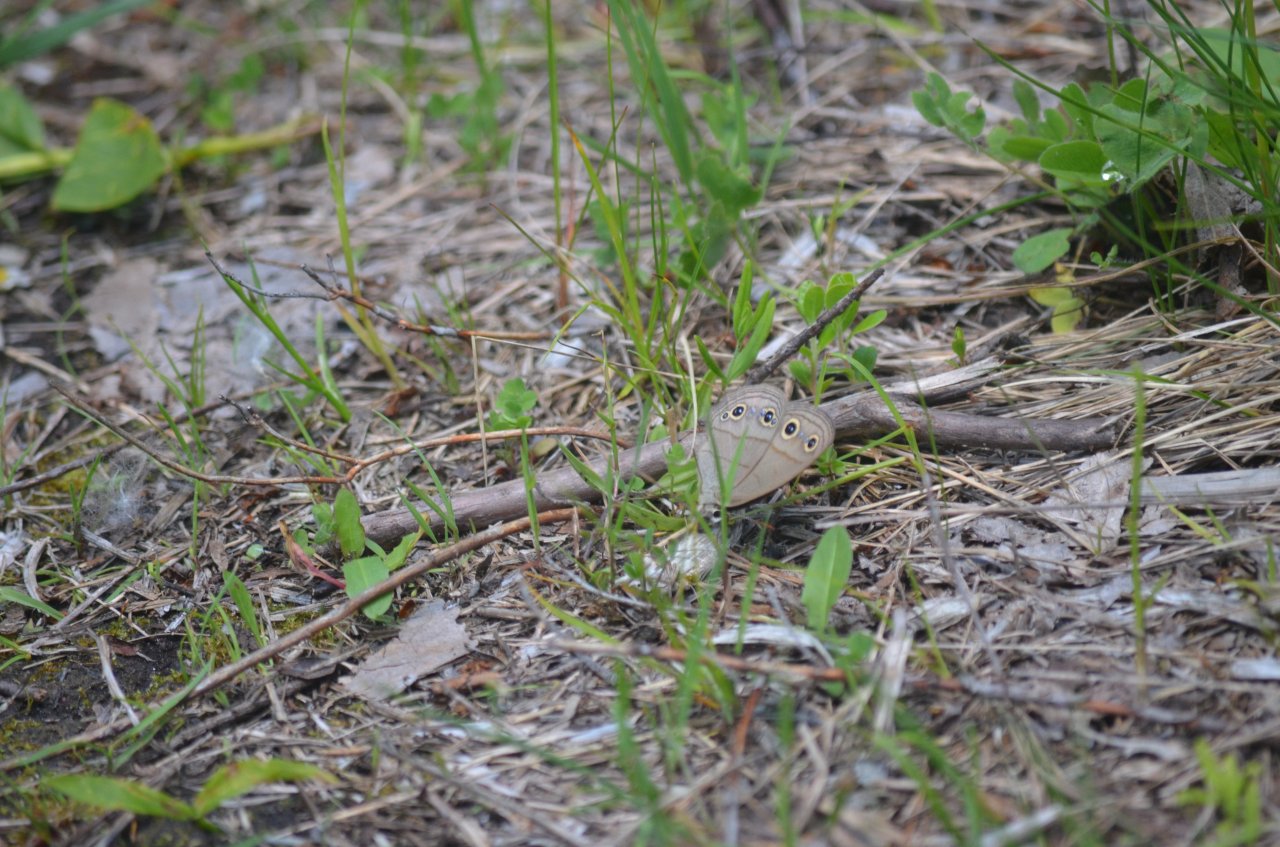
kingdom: Animalia
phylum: Arthropoda
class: Insecta
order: Lepidoptera
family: Nymphalidae
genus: Euptychia
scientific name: Euptychia cymela
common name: Little Wood Satyr
